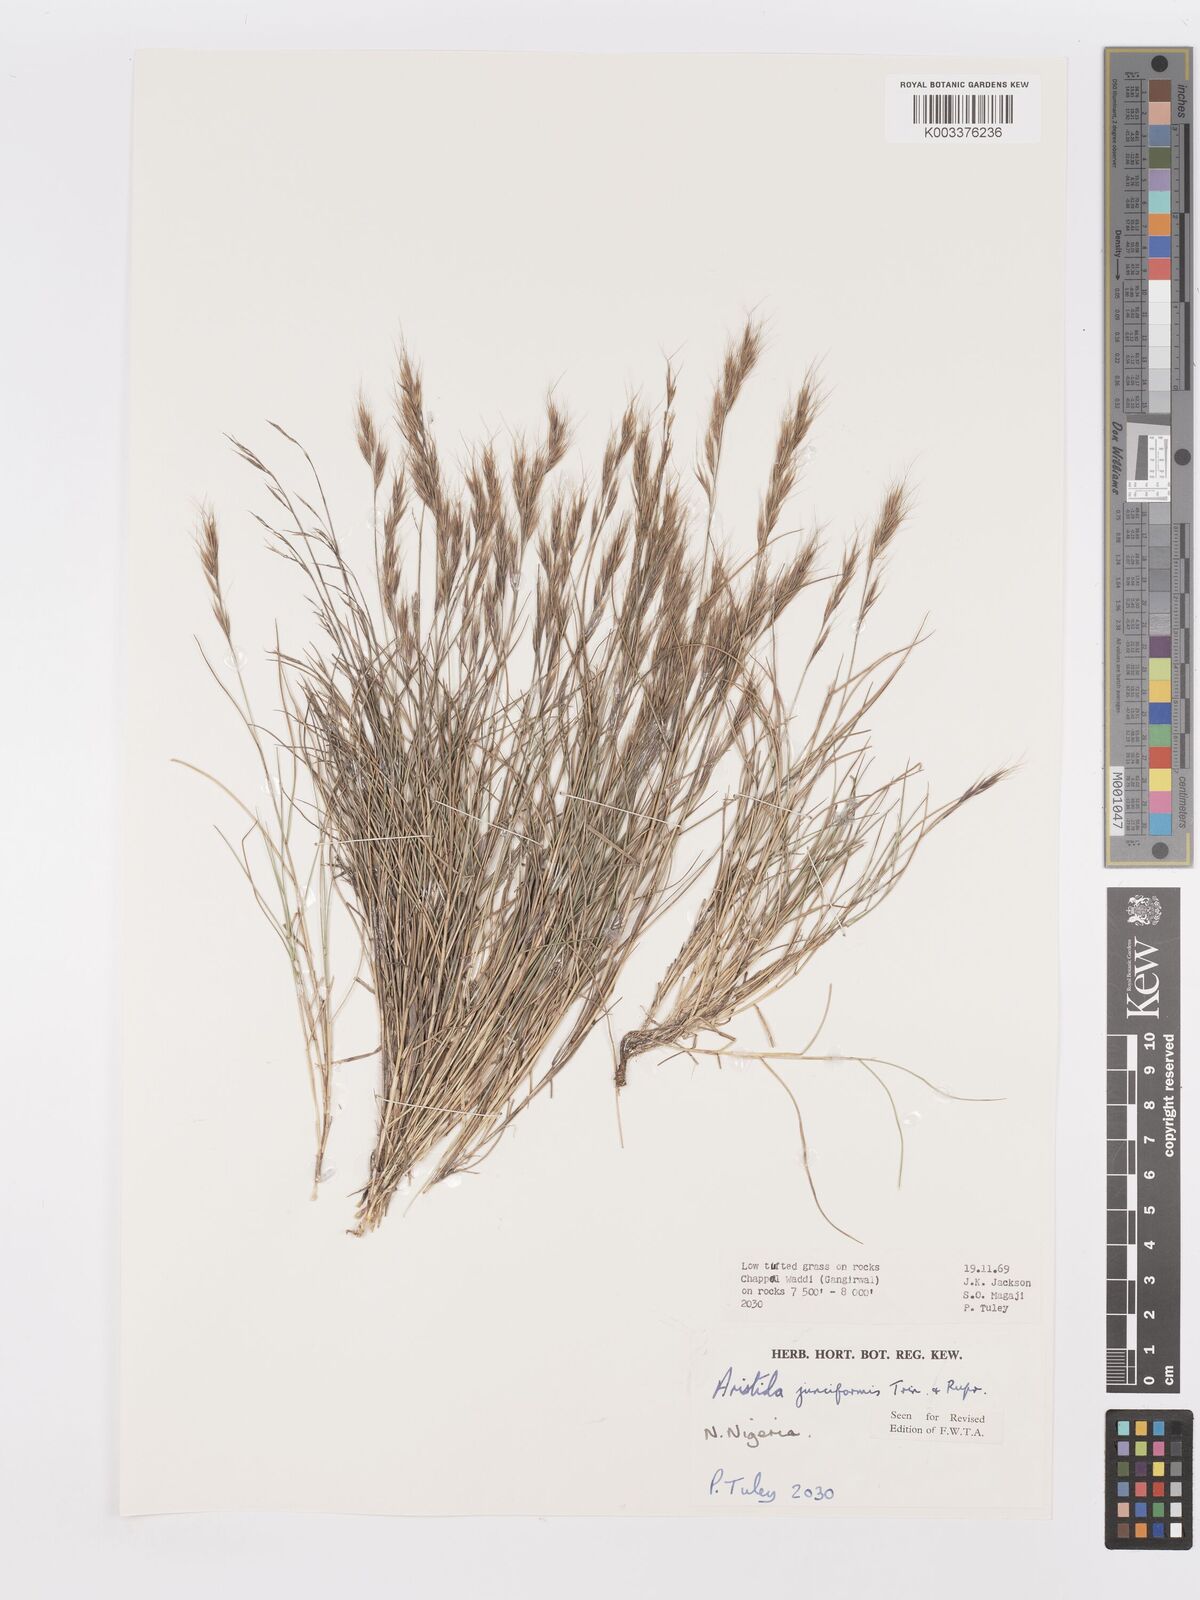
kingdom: Plantae
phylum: Tracheophyta
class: Liliopsida
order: Poales
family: Poaceae
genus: Aristida
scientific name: Aristida junciformis
